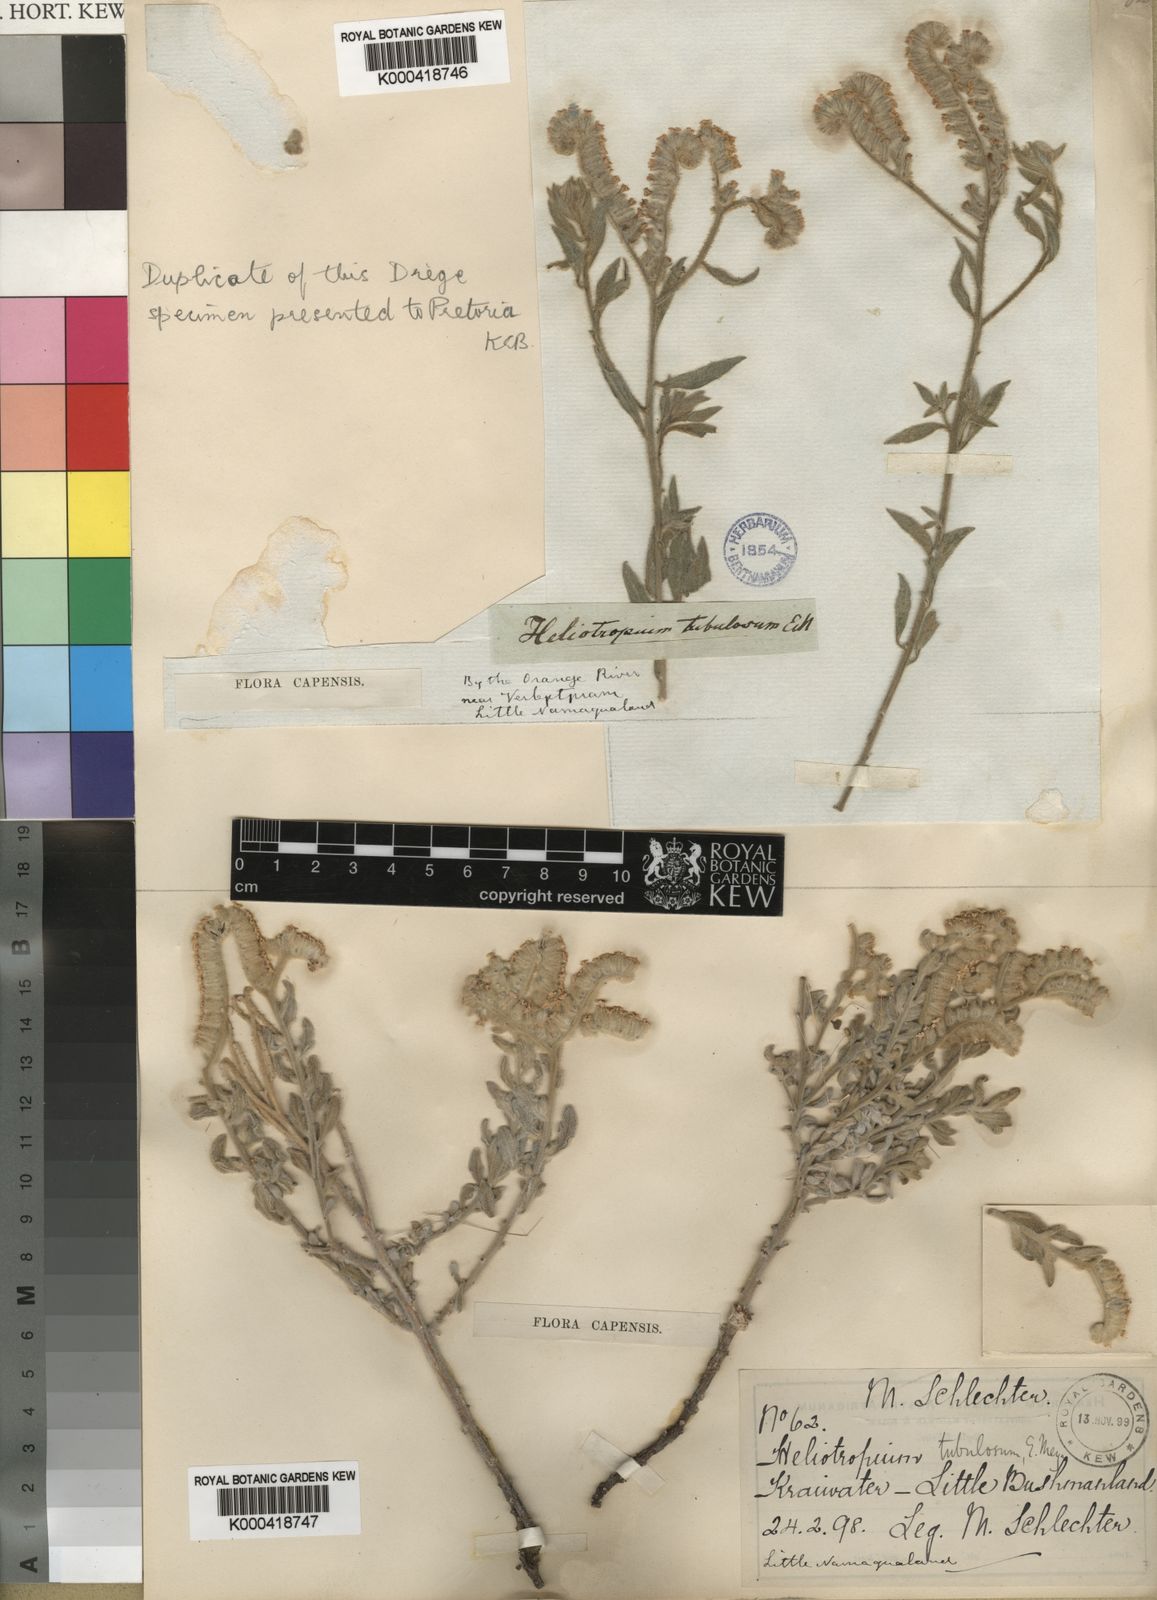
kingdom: Plantae
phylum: Tracheophyta
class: Magnoliopsida
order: Boraginales
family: Heliotropiaceae
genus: Heliotropium
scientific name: Heliotropium tubulosum
